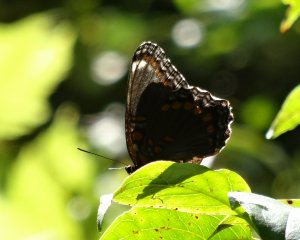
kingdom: Animalia
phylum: Arthropoda
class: Insecta
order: Lepidoptera
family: Nymphalidae
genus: Limenitis
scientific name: Limenitis astyanax
